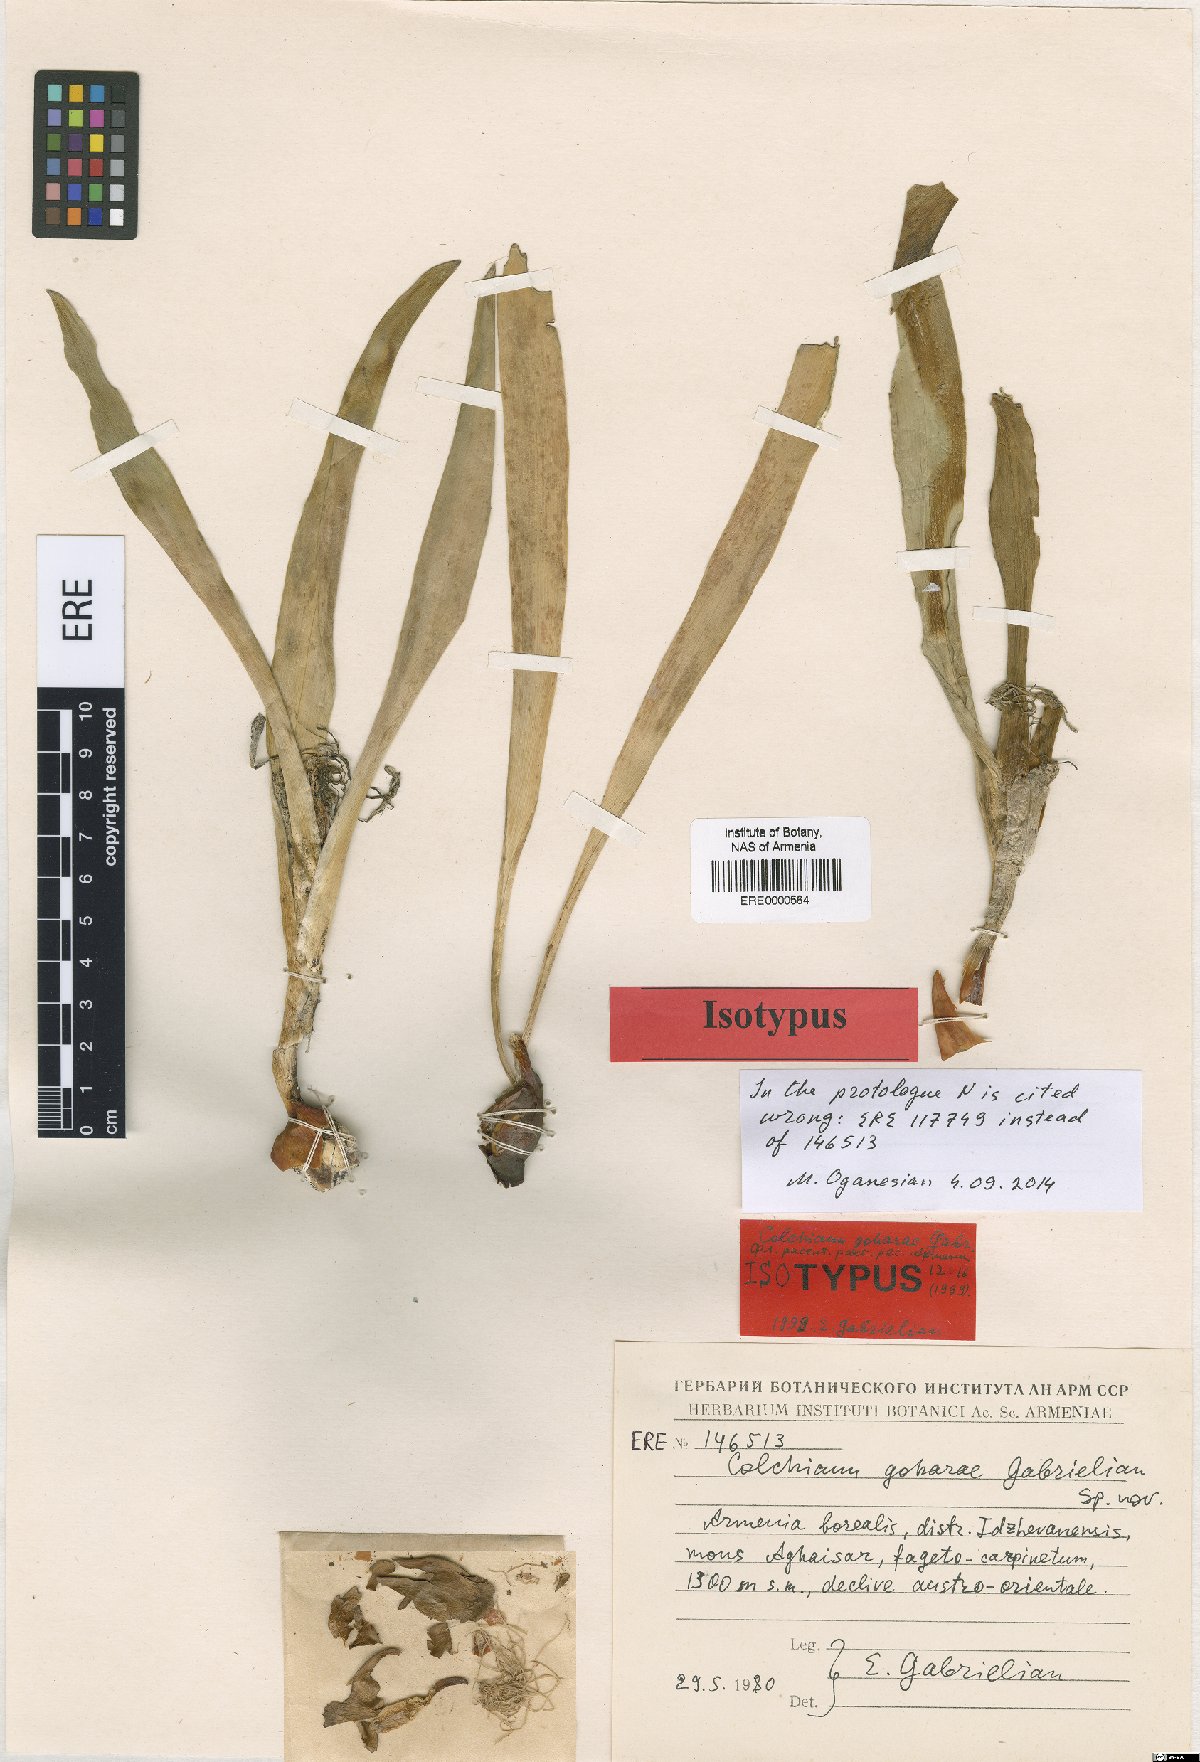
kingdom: Plantae
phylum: Tracheophyta
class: Liliopsida
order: Liliales
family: Colchicaceae
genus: Colchicum
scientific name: Colchicum szovitsii
